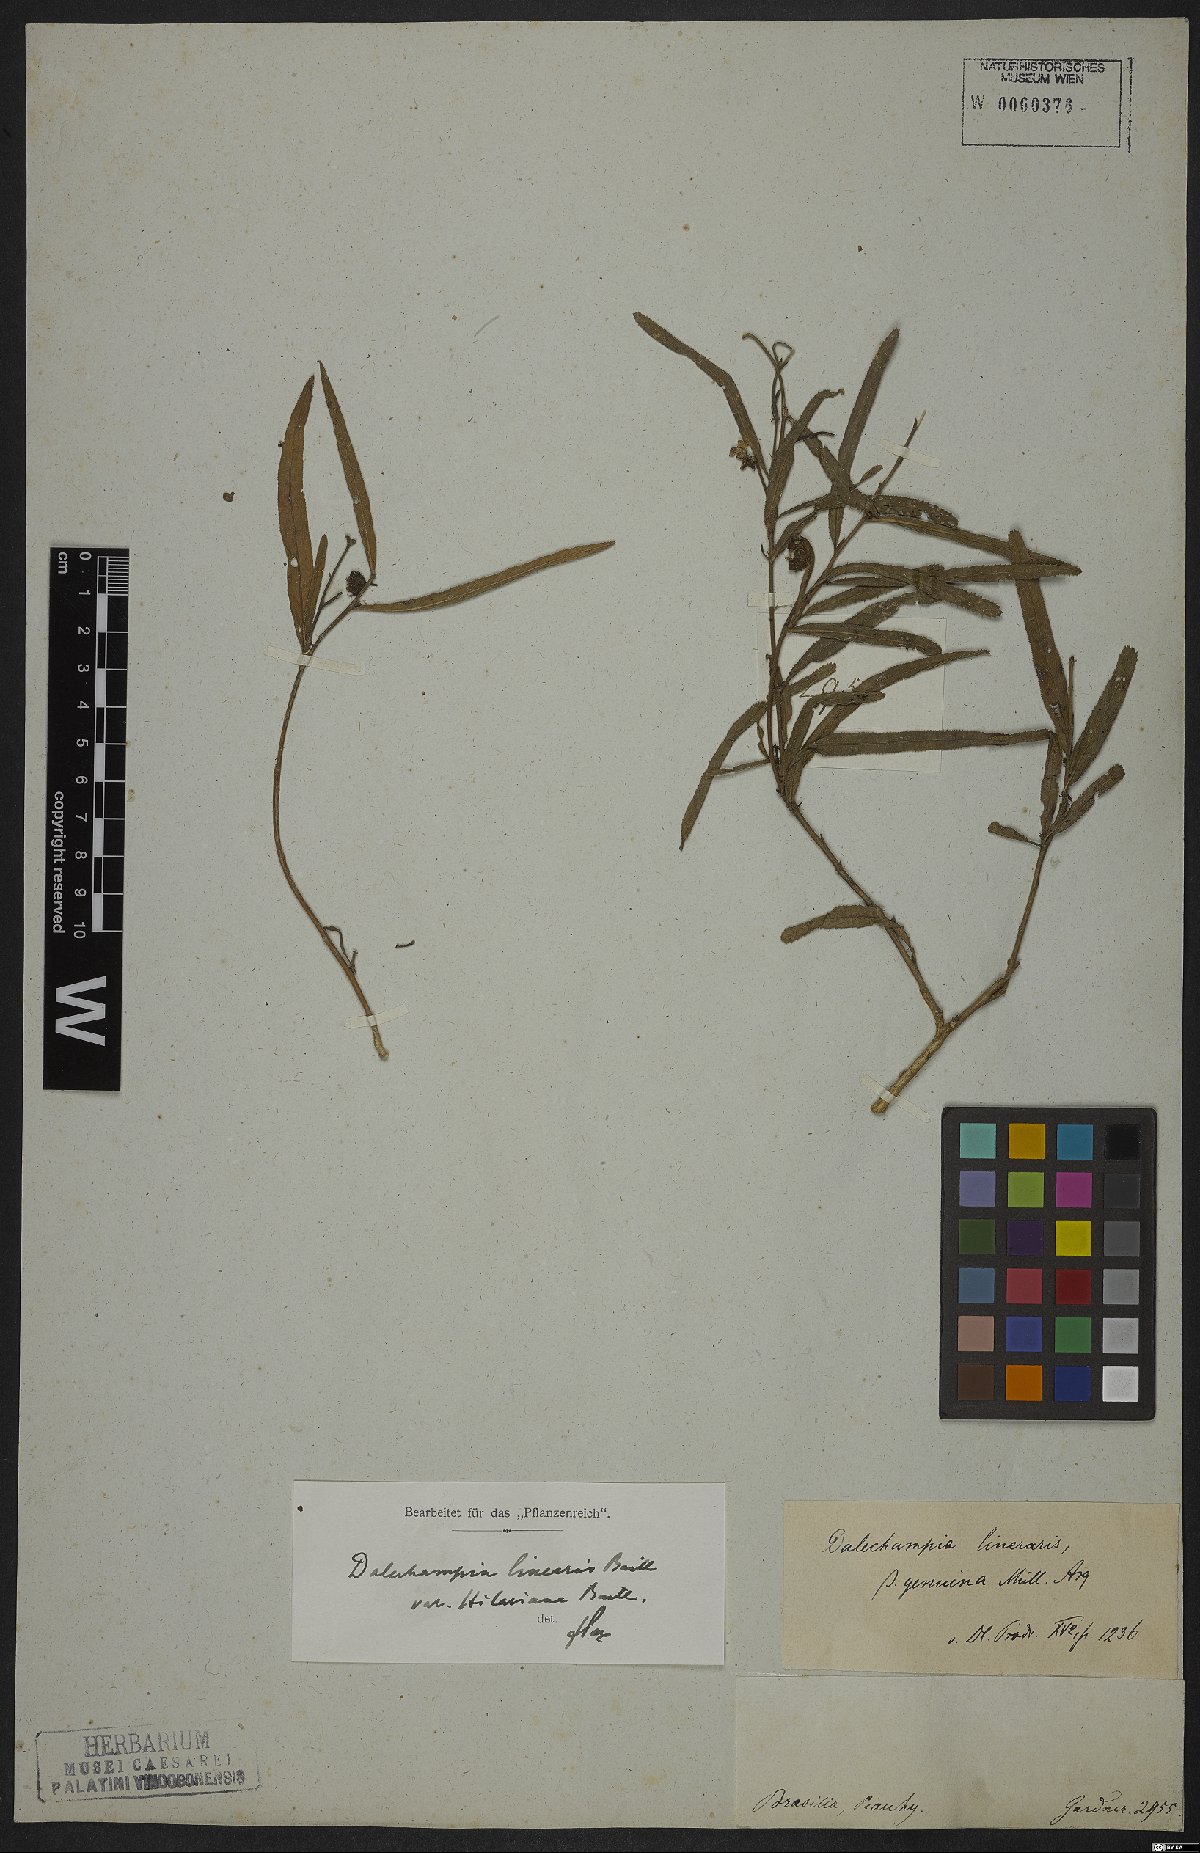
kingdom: Plantae
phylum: Tracheophyta
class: Magnoliopsida
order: Malpighiales
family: Euphorbiaceae
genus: Dalechampia
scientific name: Dalechampia linearis
